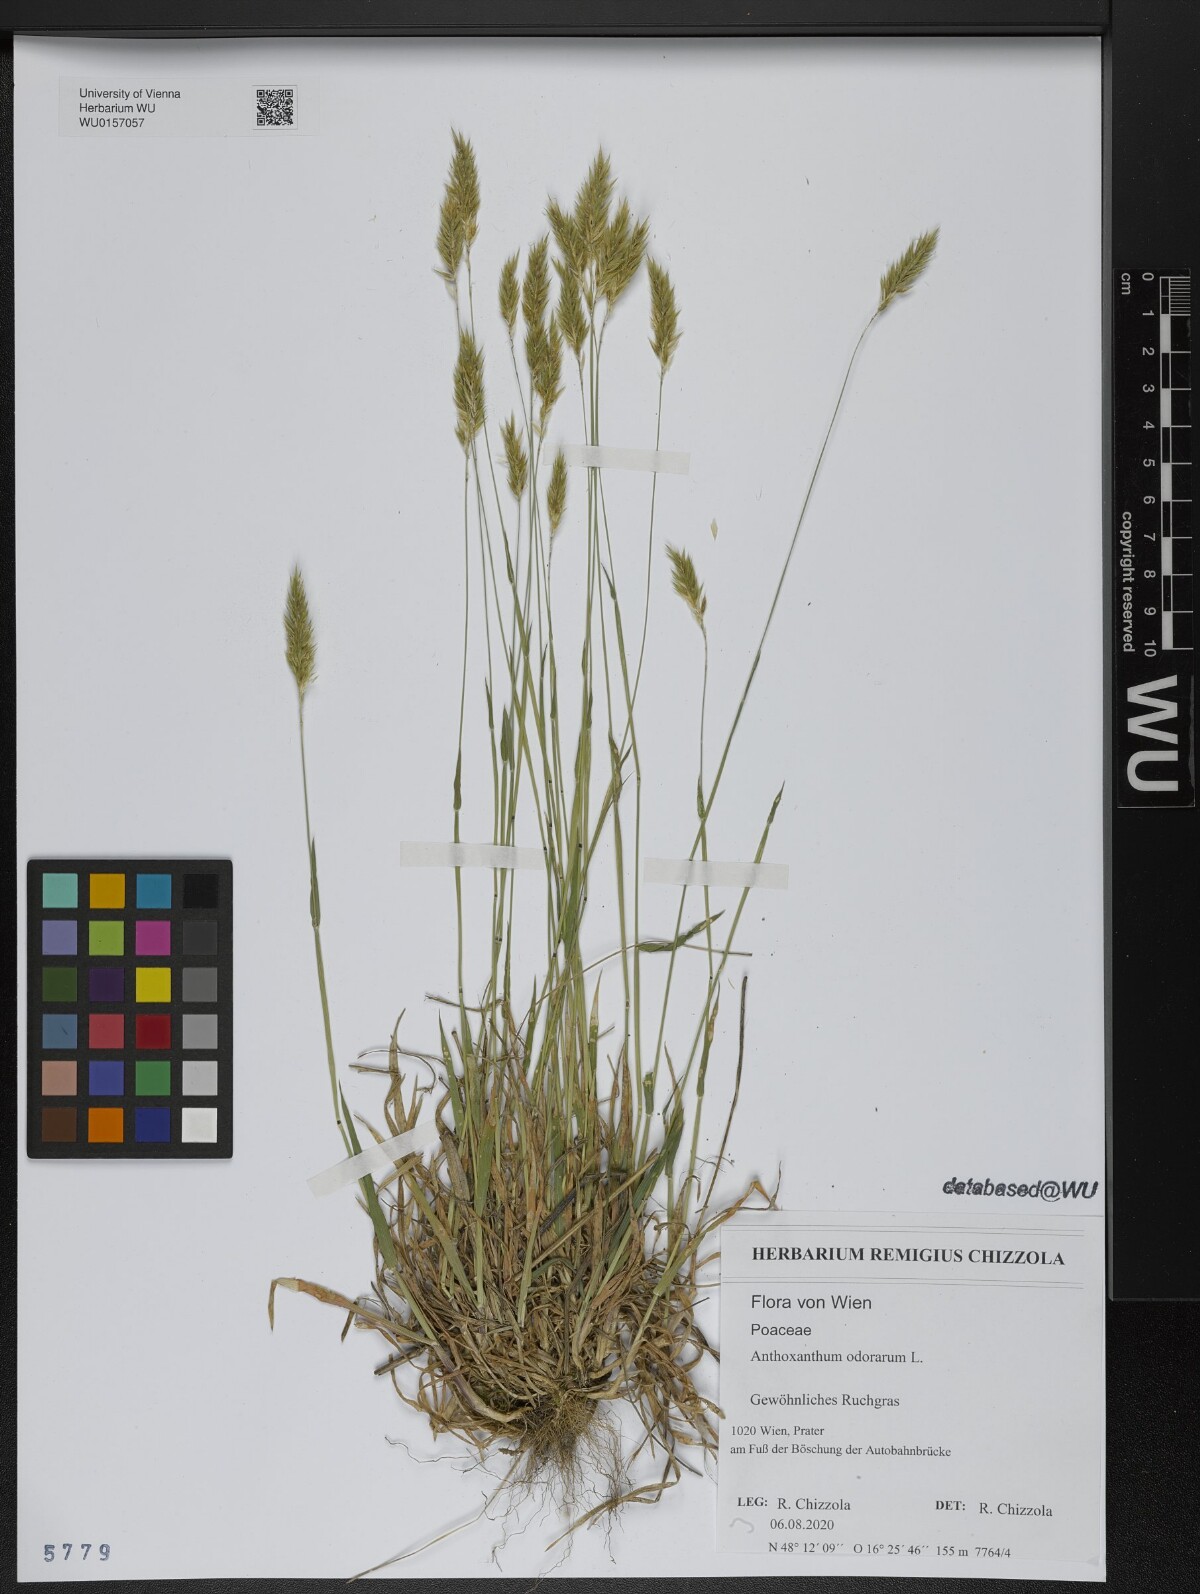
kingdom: Plantae
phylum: Tracheophyta
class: Liliopsida
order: Poales
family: Poaceae
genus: Anthoxanthum
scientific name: Anthoxanthum odoratum
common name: Sweet vernalgrass
